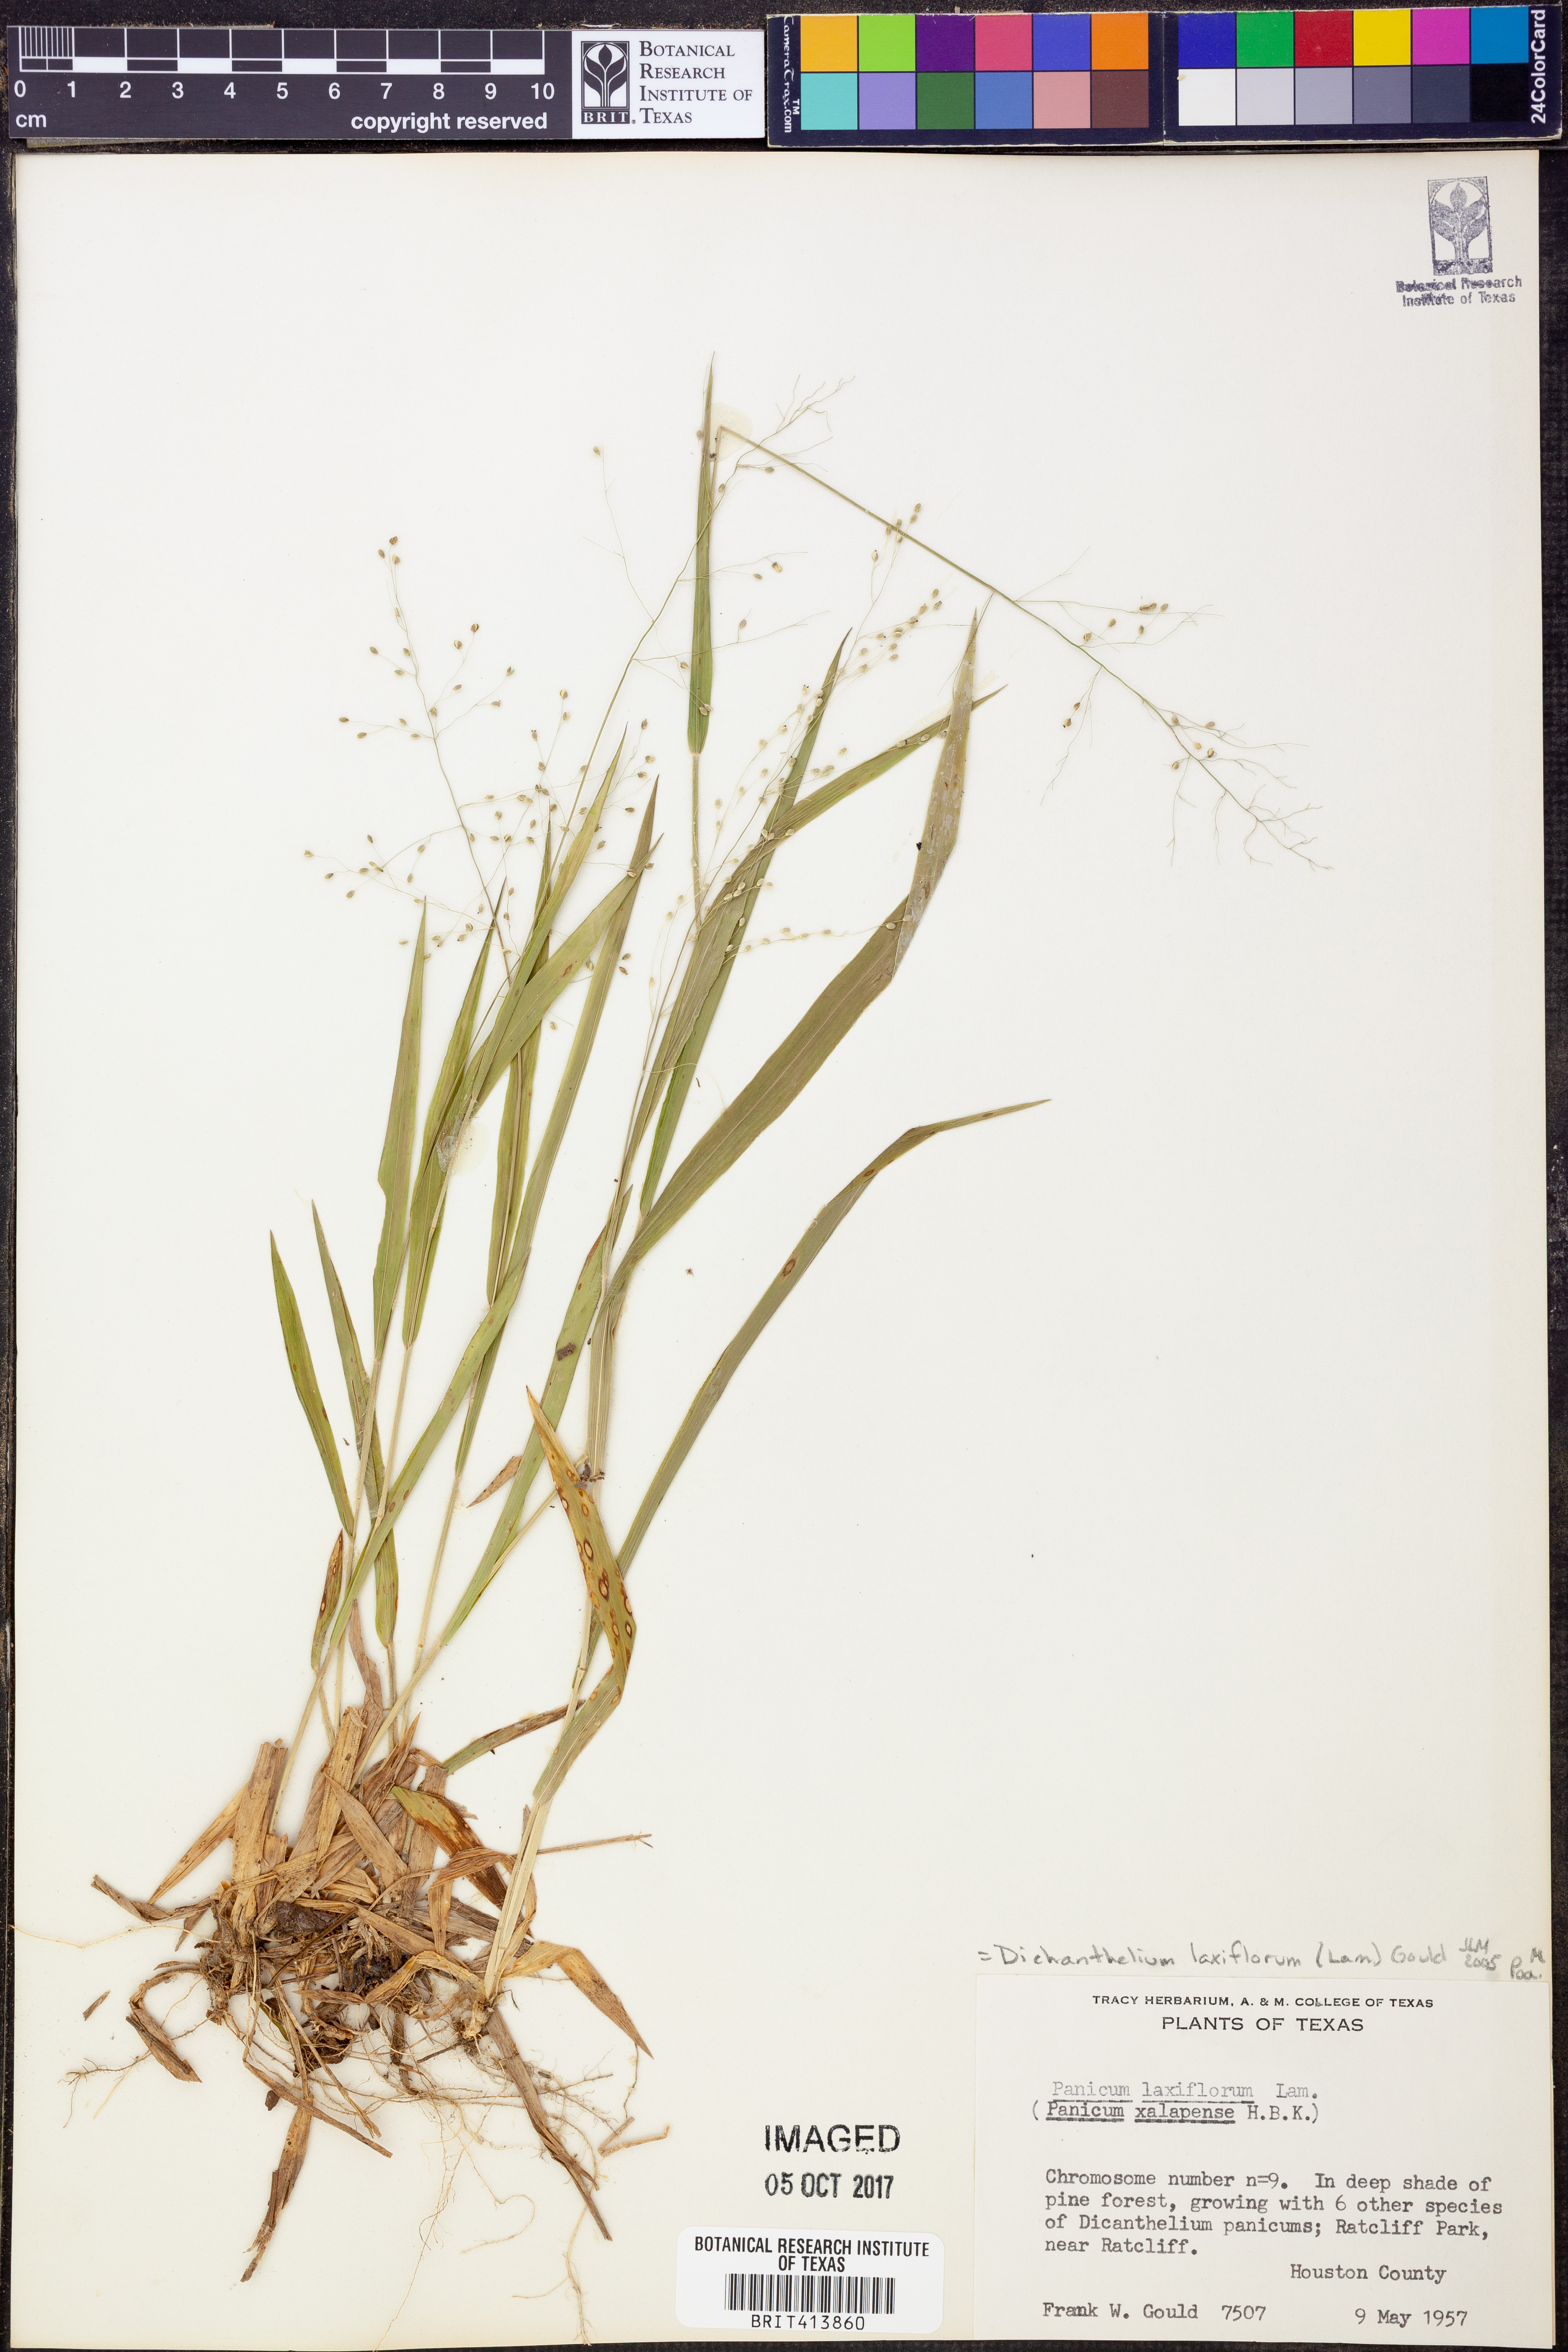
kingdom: Plantae
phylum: Tracheophyta
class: Liliopsida
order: Poales
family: Poaceae
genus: Dichanthelium
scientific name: Dichanthelium laxiflorum
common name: Soft-tuft panic grass
